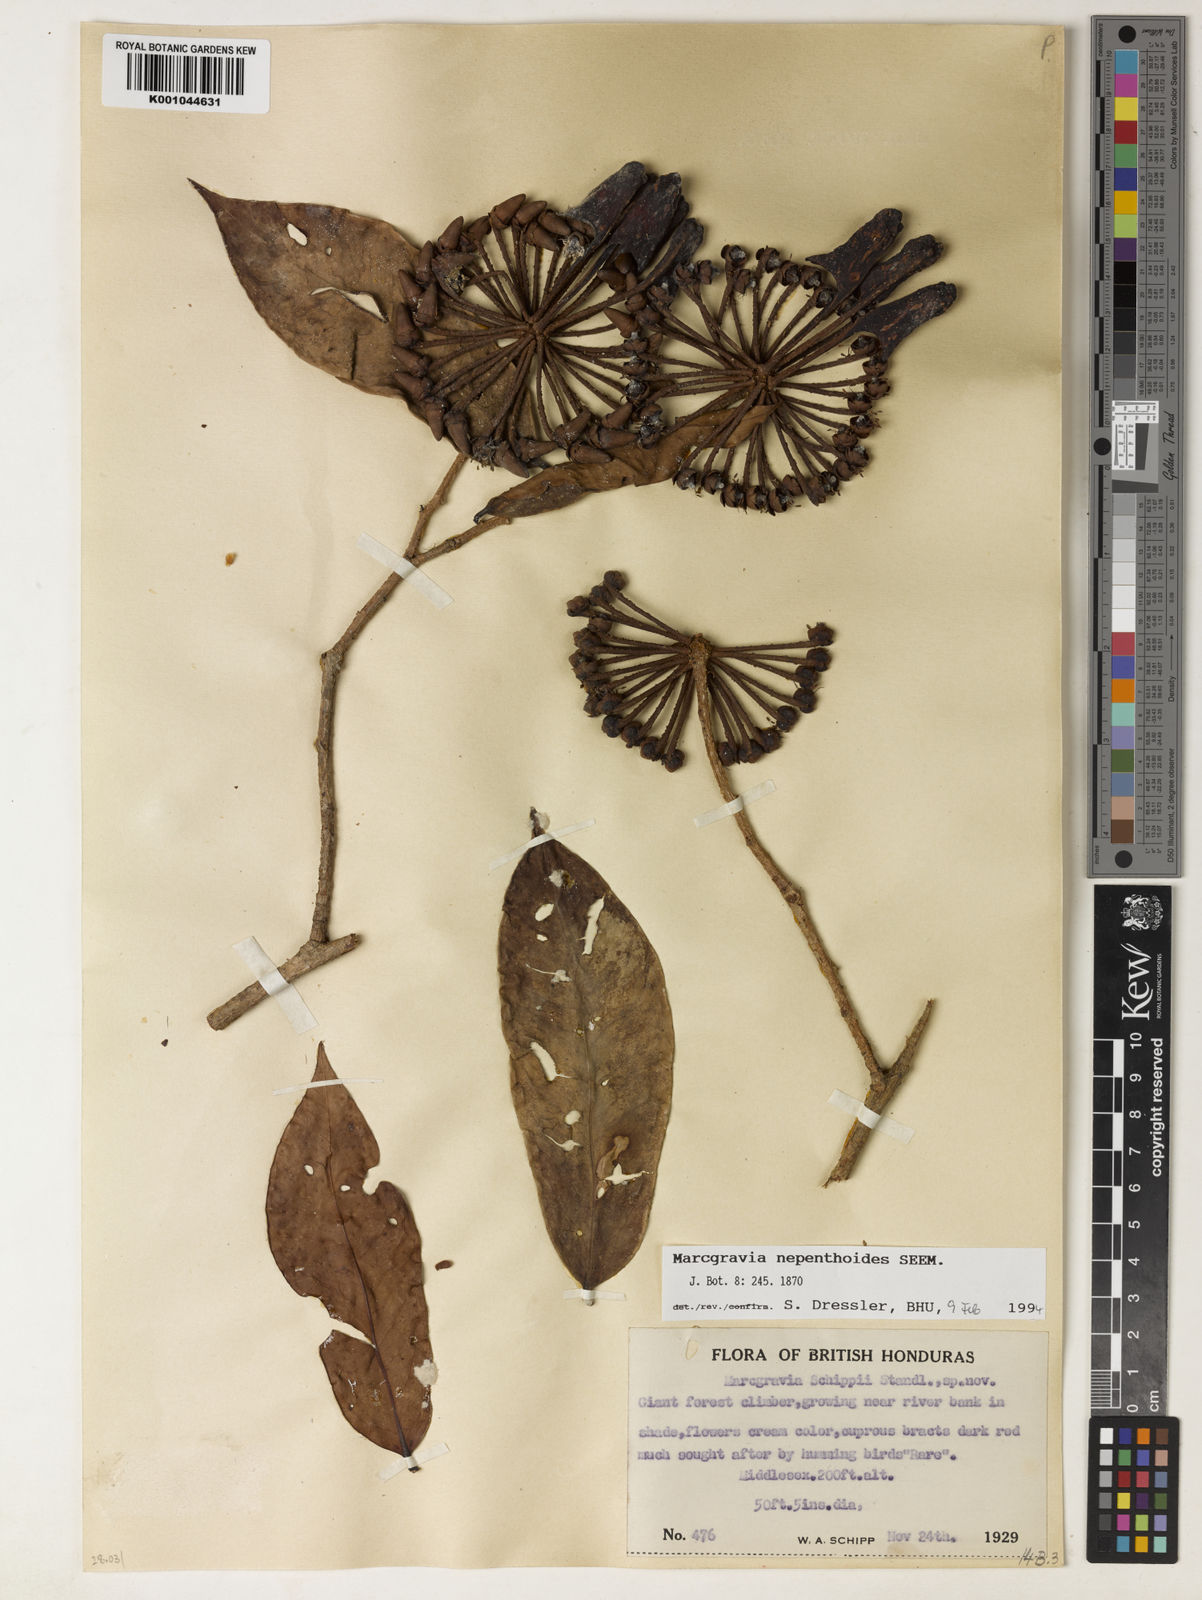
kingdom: Plantae
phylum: Tracheophyta
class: Magnoliopsida
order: Ericales
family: Marcgraviaceae
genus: Marcgravia
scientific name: Marcgravia nepenthoides
